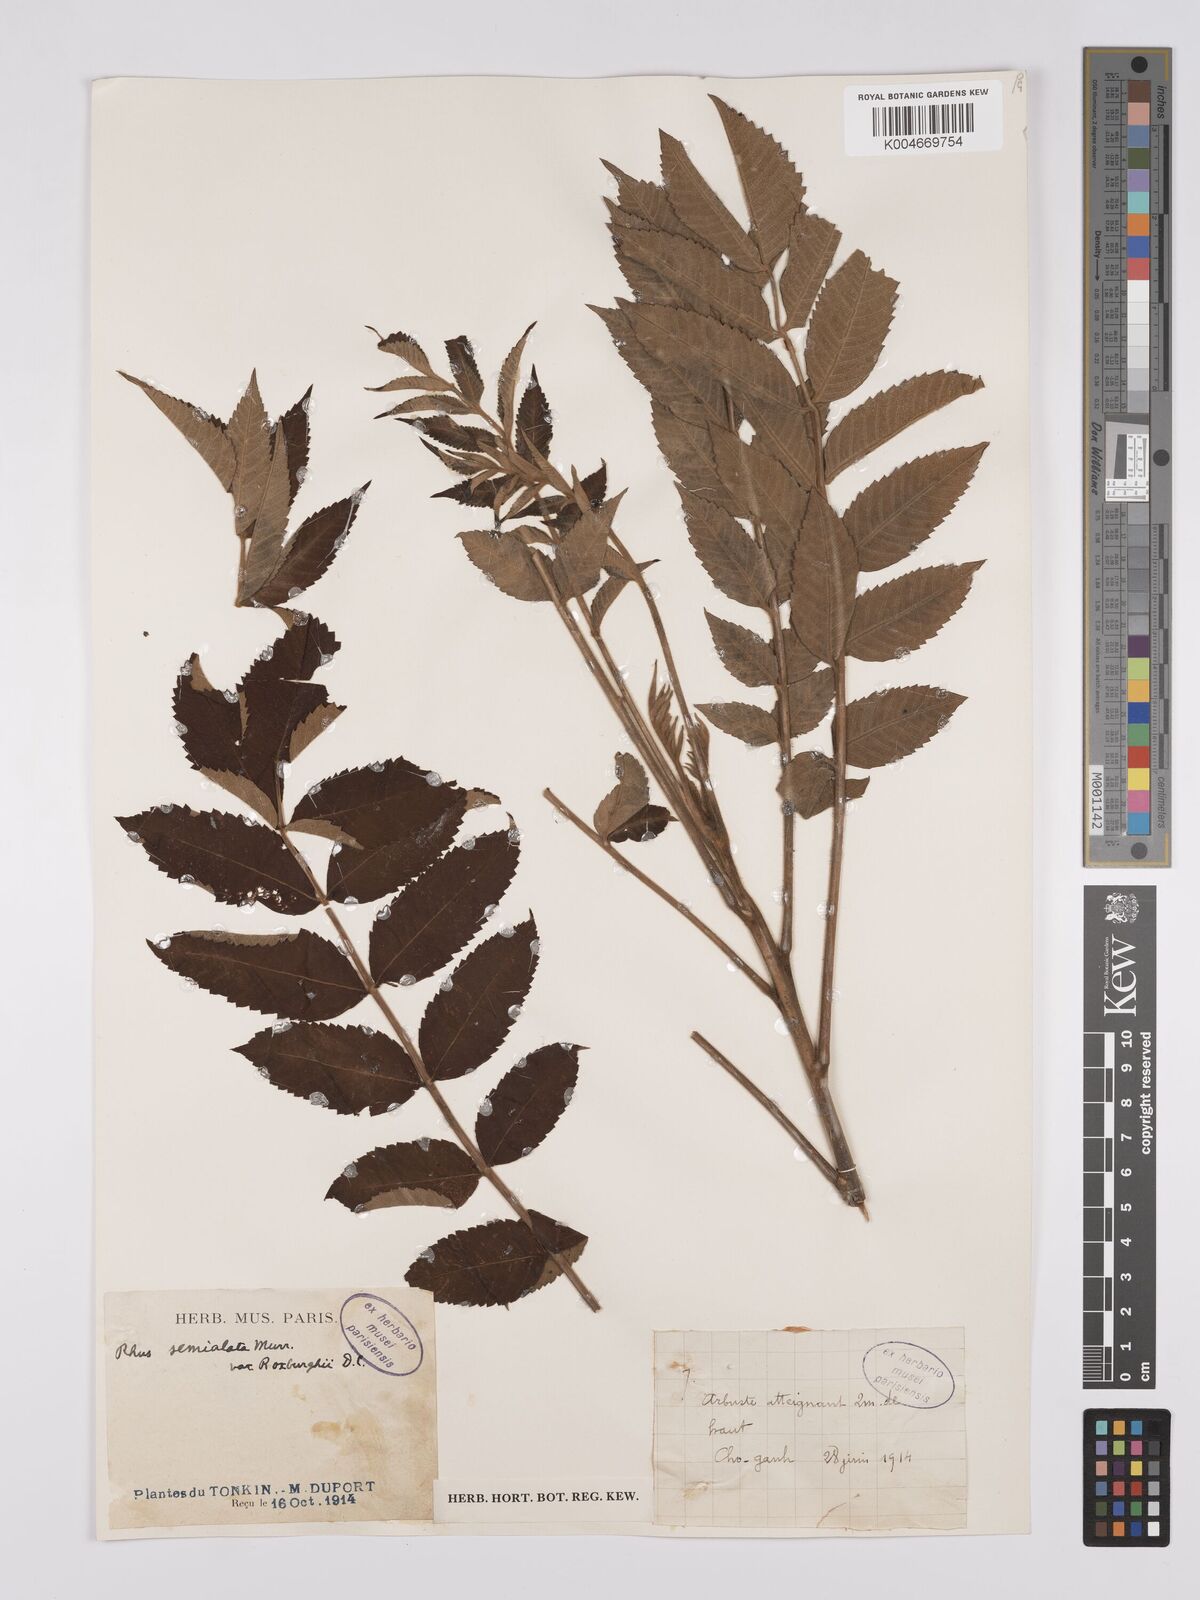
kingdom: Plantae
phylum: Tracheophyta
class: Magnoliopsida
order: Sapindales
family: Anacardiaceae
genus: Rhus
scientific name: Rhus chinensis
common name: Chinese gall
